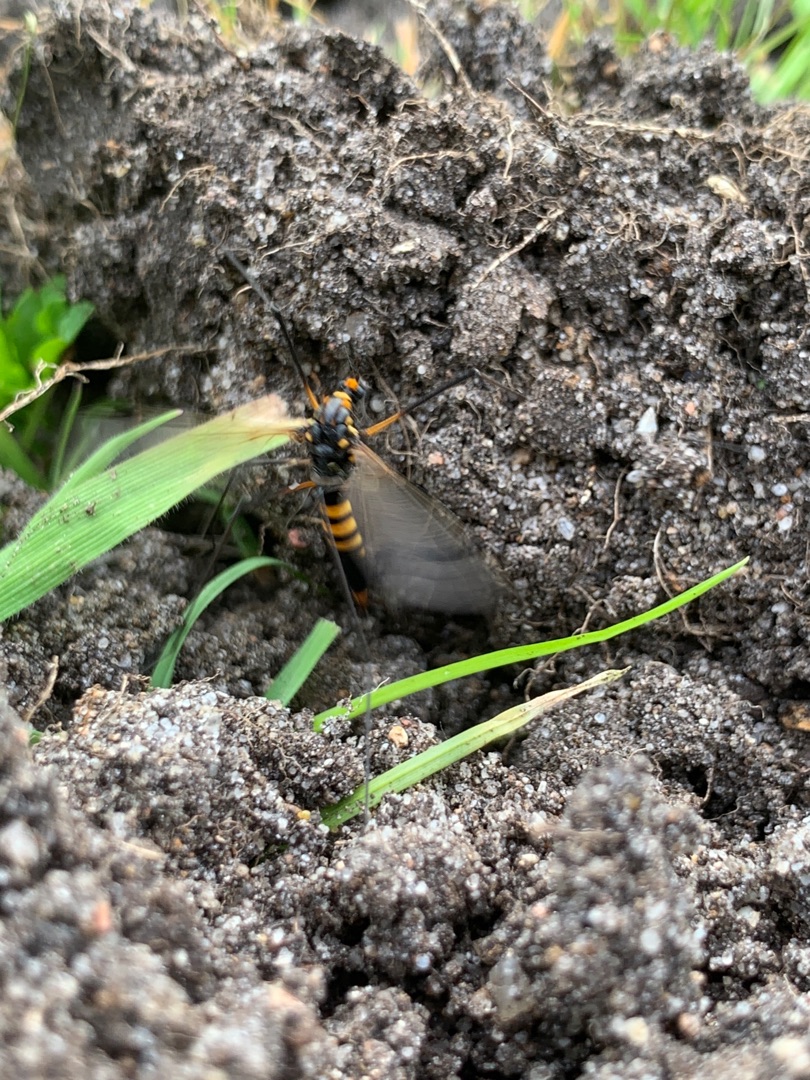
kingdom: Animalia
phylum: Arthropoda
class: Insecta
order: Diptera
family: Tipulidae
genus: Nephrotoma
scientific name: Nephrotoma crocata
